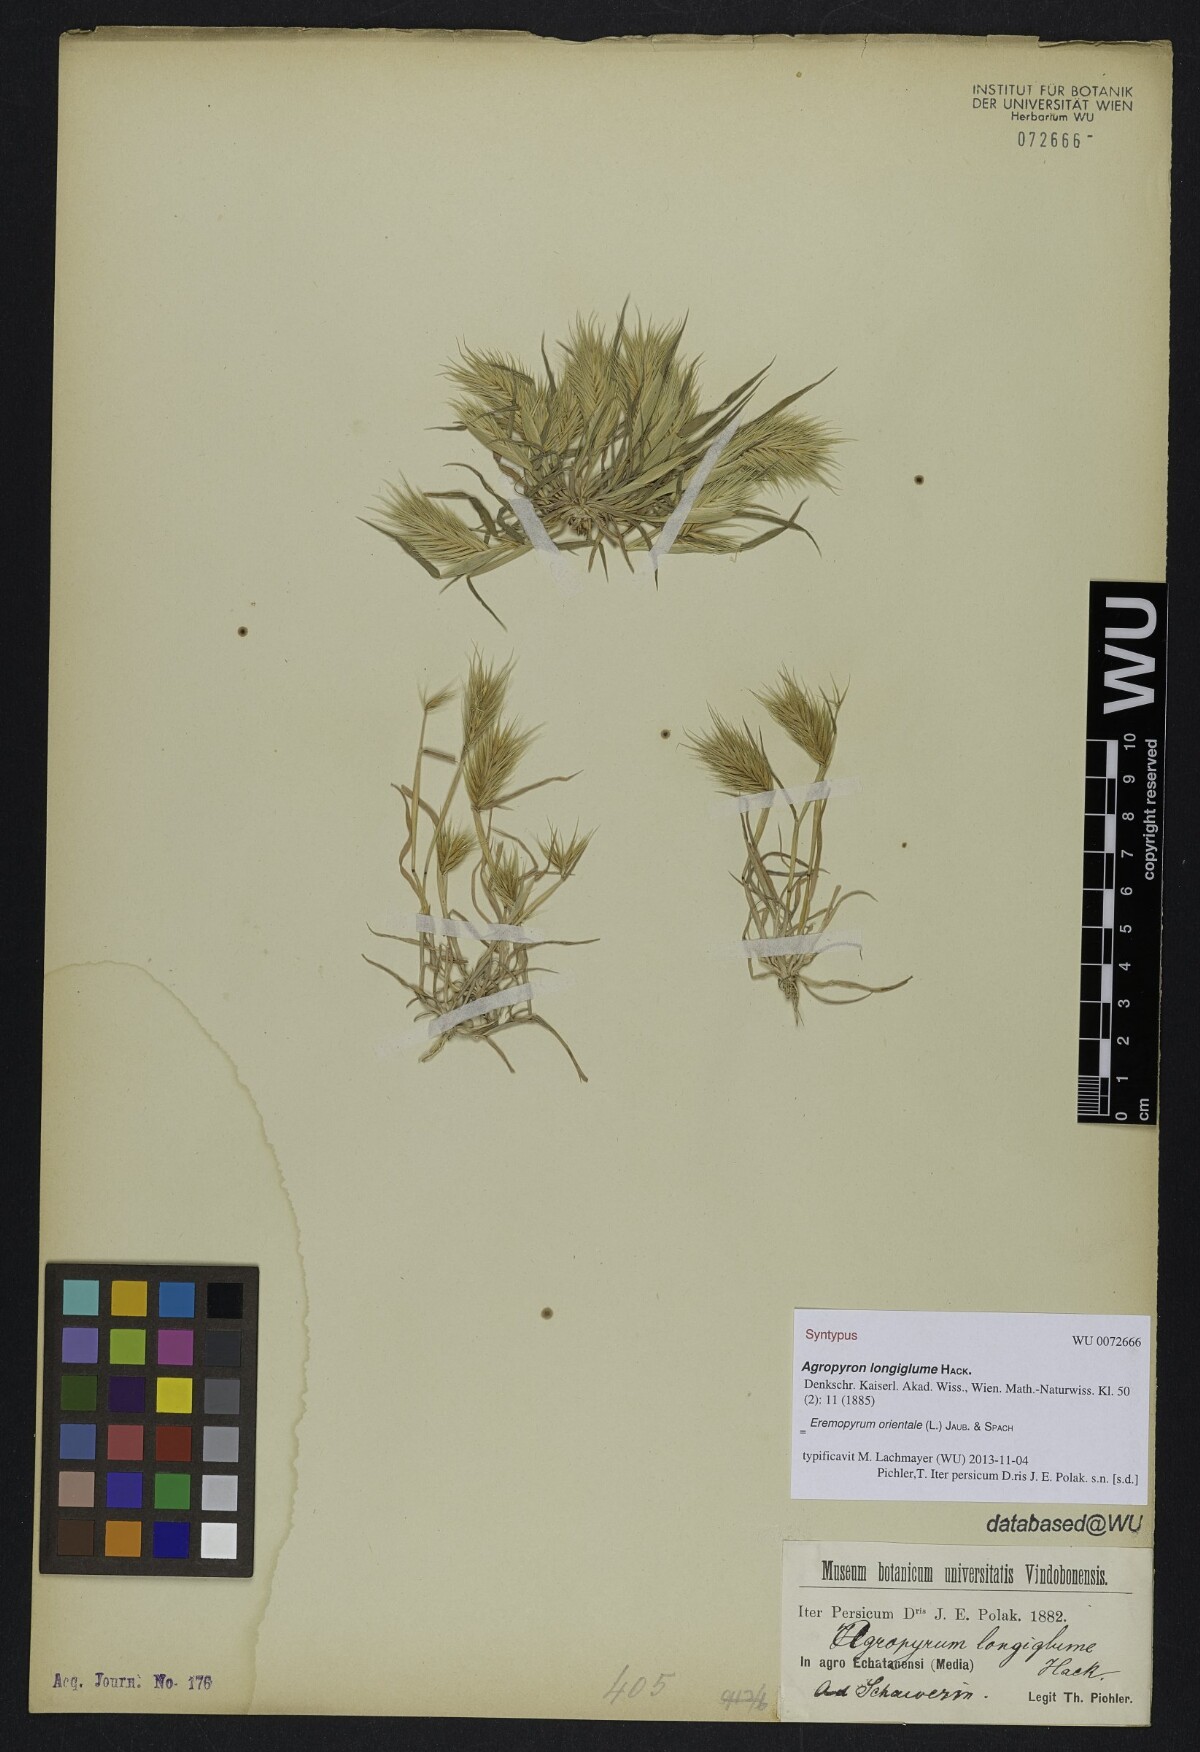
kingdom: Plantae
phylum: Tracheophyta
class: Liliopsida
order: Poales
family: Poaceae
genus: Eremopyrum
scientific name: Eremopyrum orientale
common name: Oriental false wheatgrass
